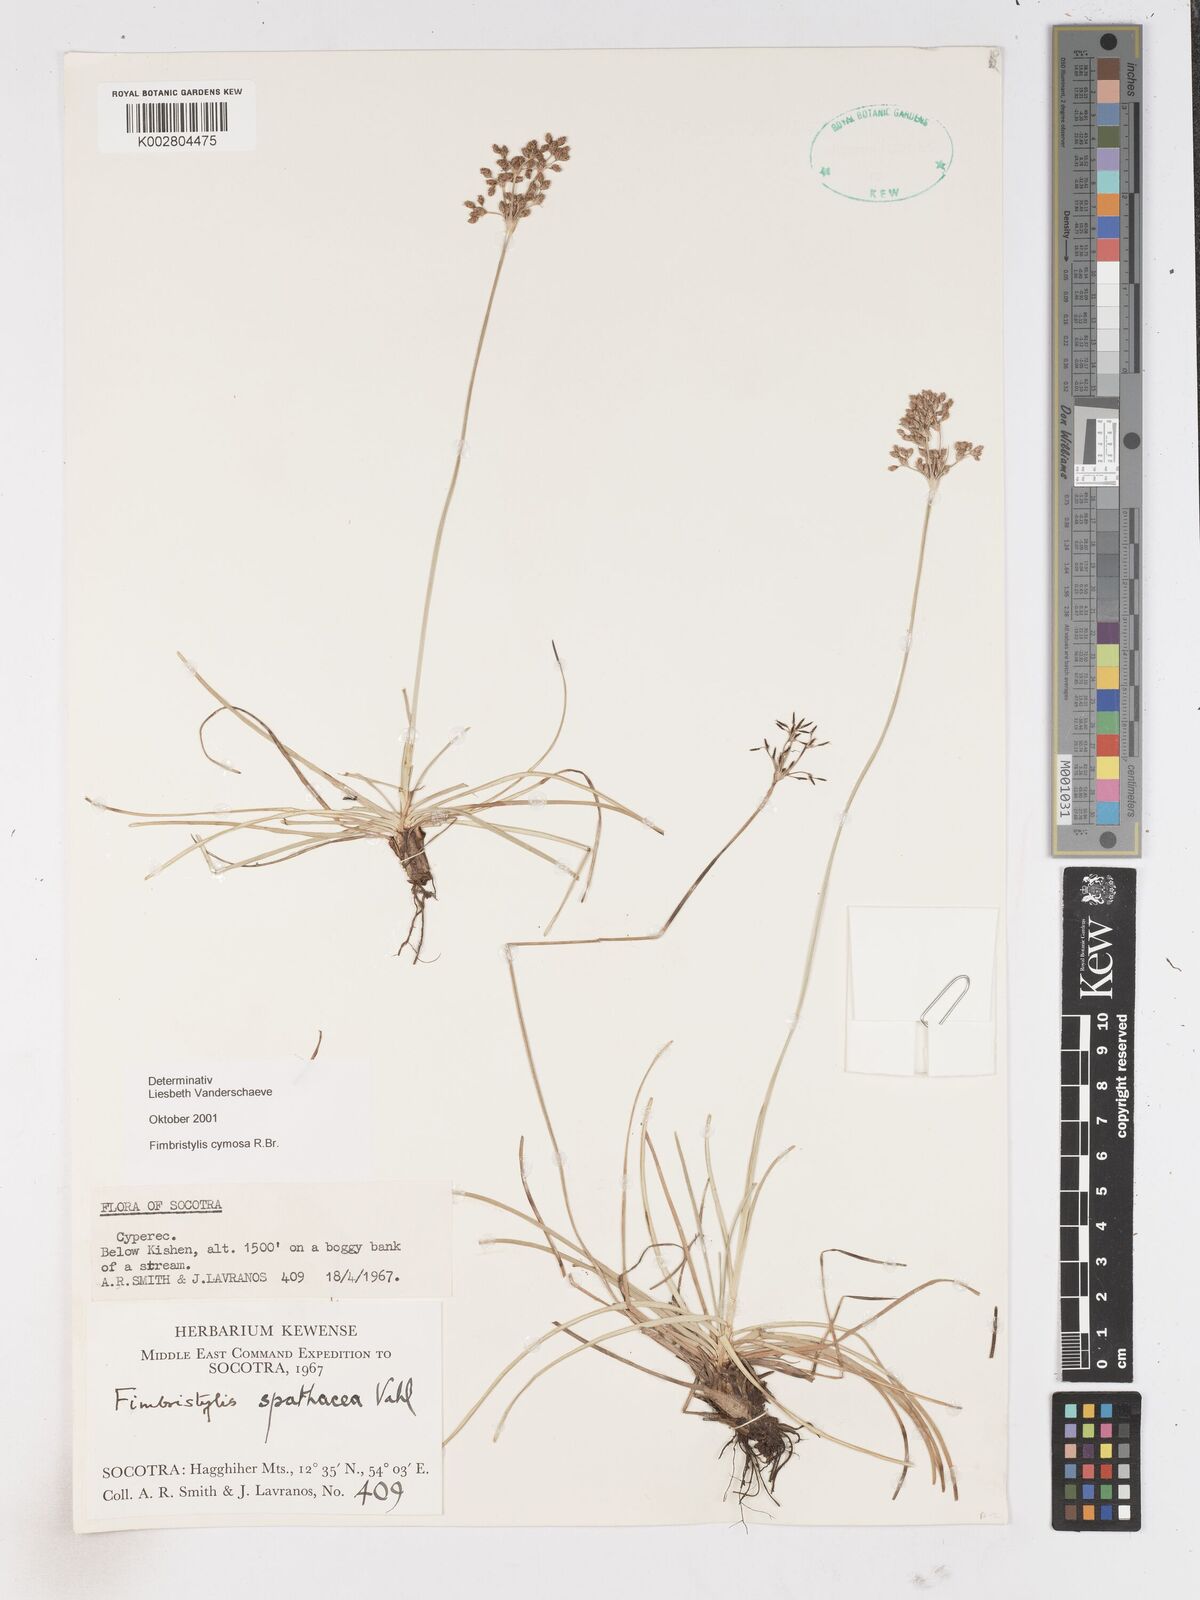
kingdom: Plantae
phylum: Tracheophyta
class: Liliopsida
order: Poales
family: Cyperaceae
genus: Fimbristylis
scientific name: Fimbristylis cymosa
